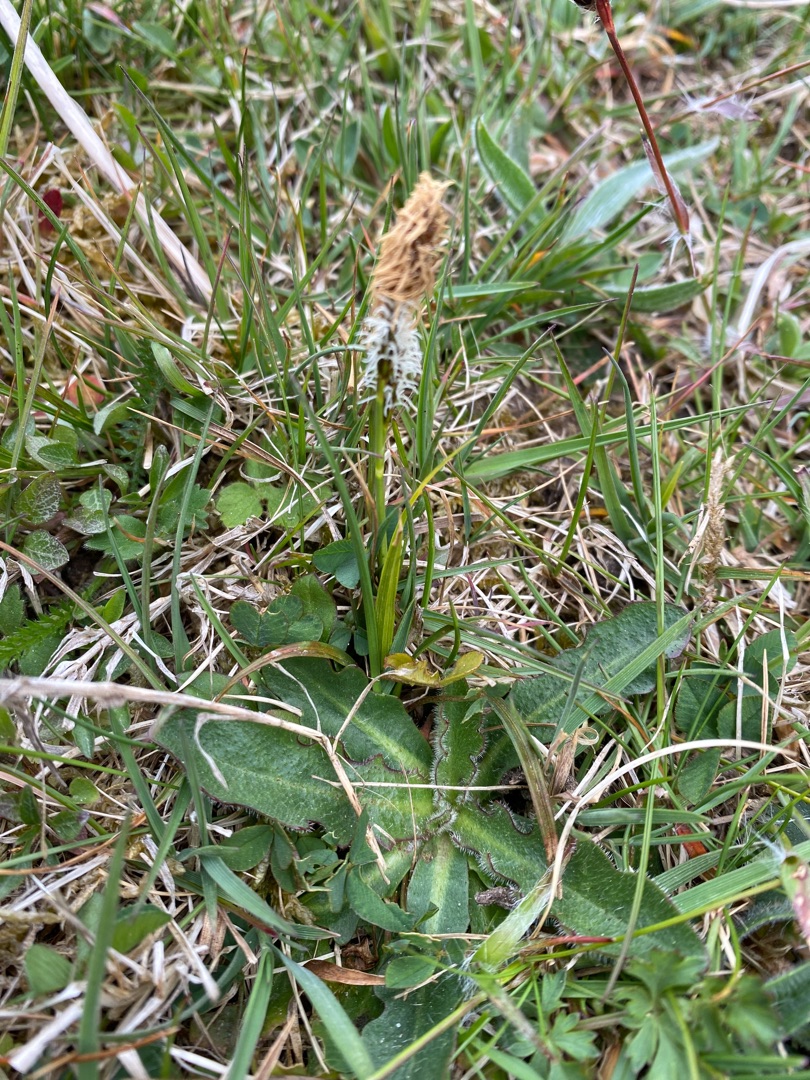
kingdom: Plantae
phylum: Tracheophyta
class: Liliopsida
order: Poales
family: Cyperaceae
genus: Carex
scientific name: Carex caryophyllea
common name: Vår-star
